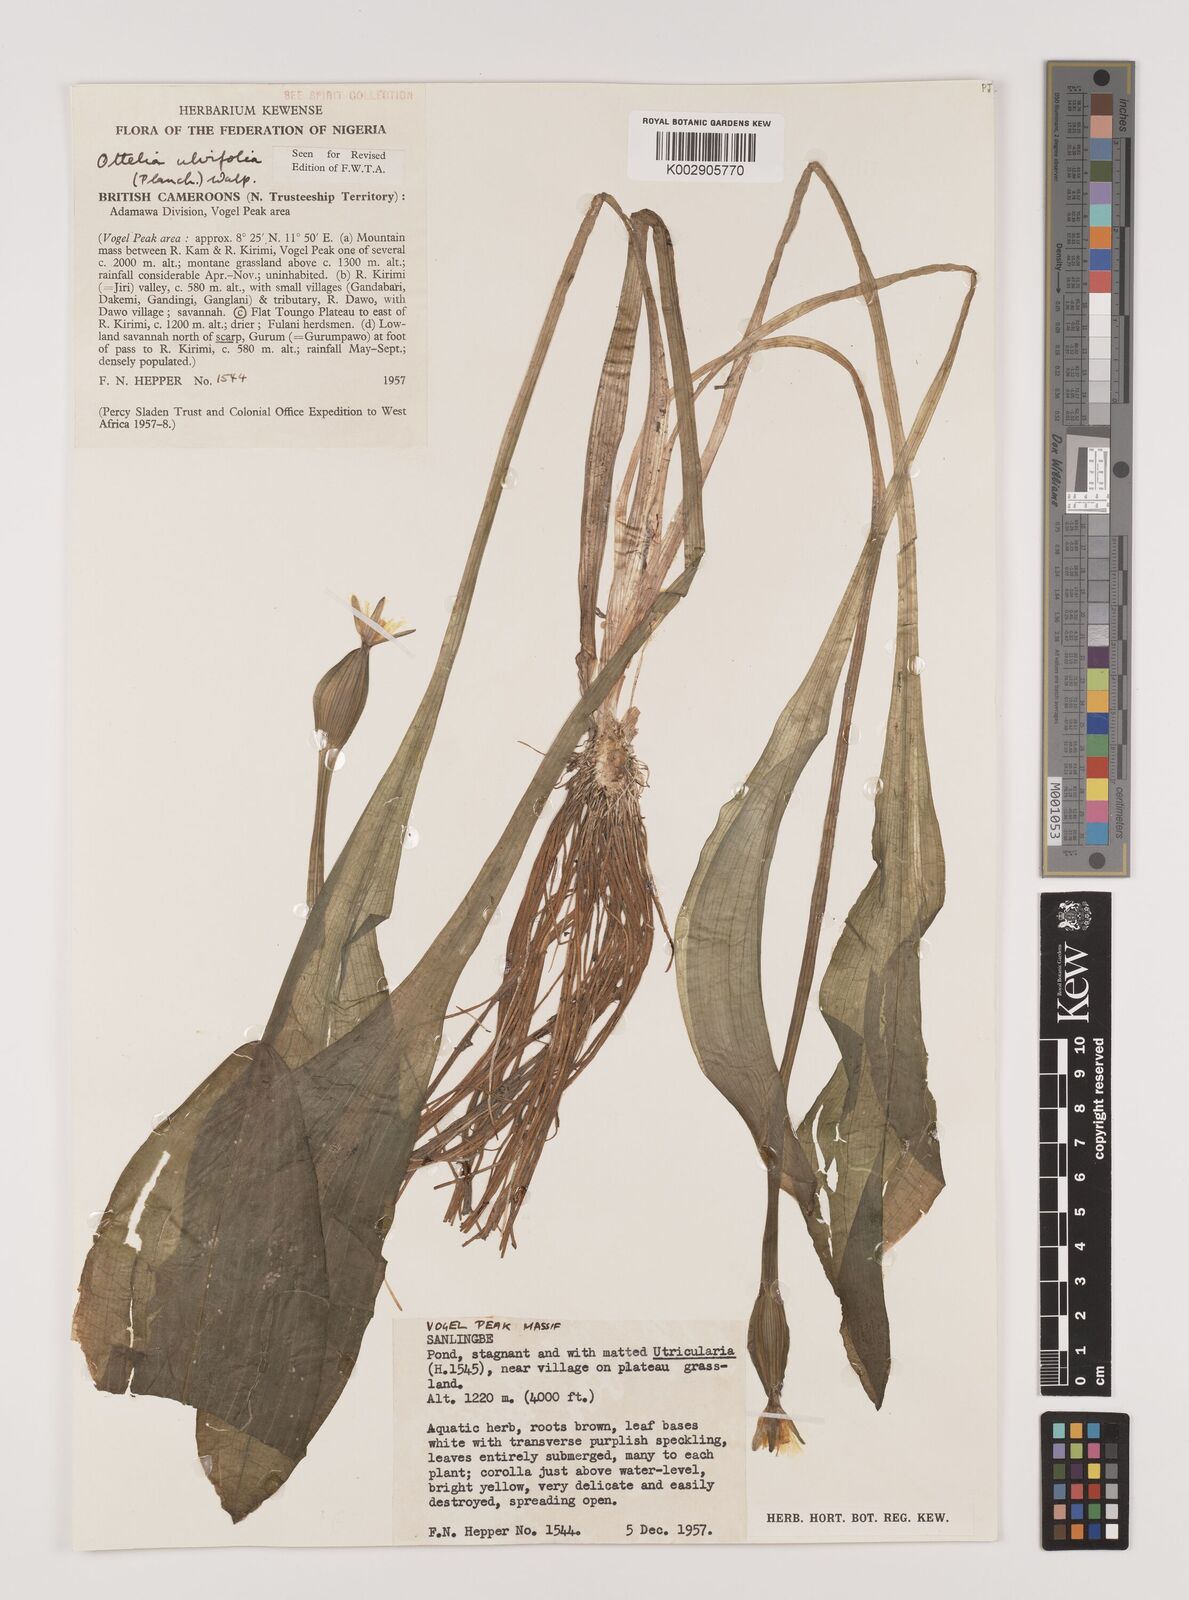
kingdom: Plantae
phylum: Tracheophyta
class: Liliopsida
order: Alismatales
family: Hydrocharitaceae
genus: Ottelia
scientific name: Ottelia ulvifolia
